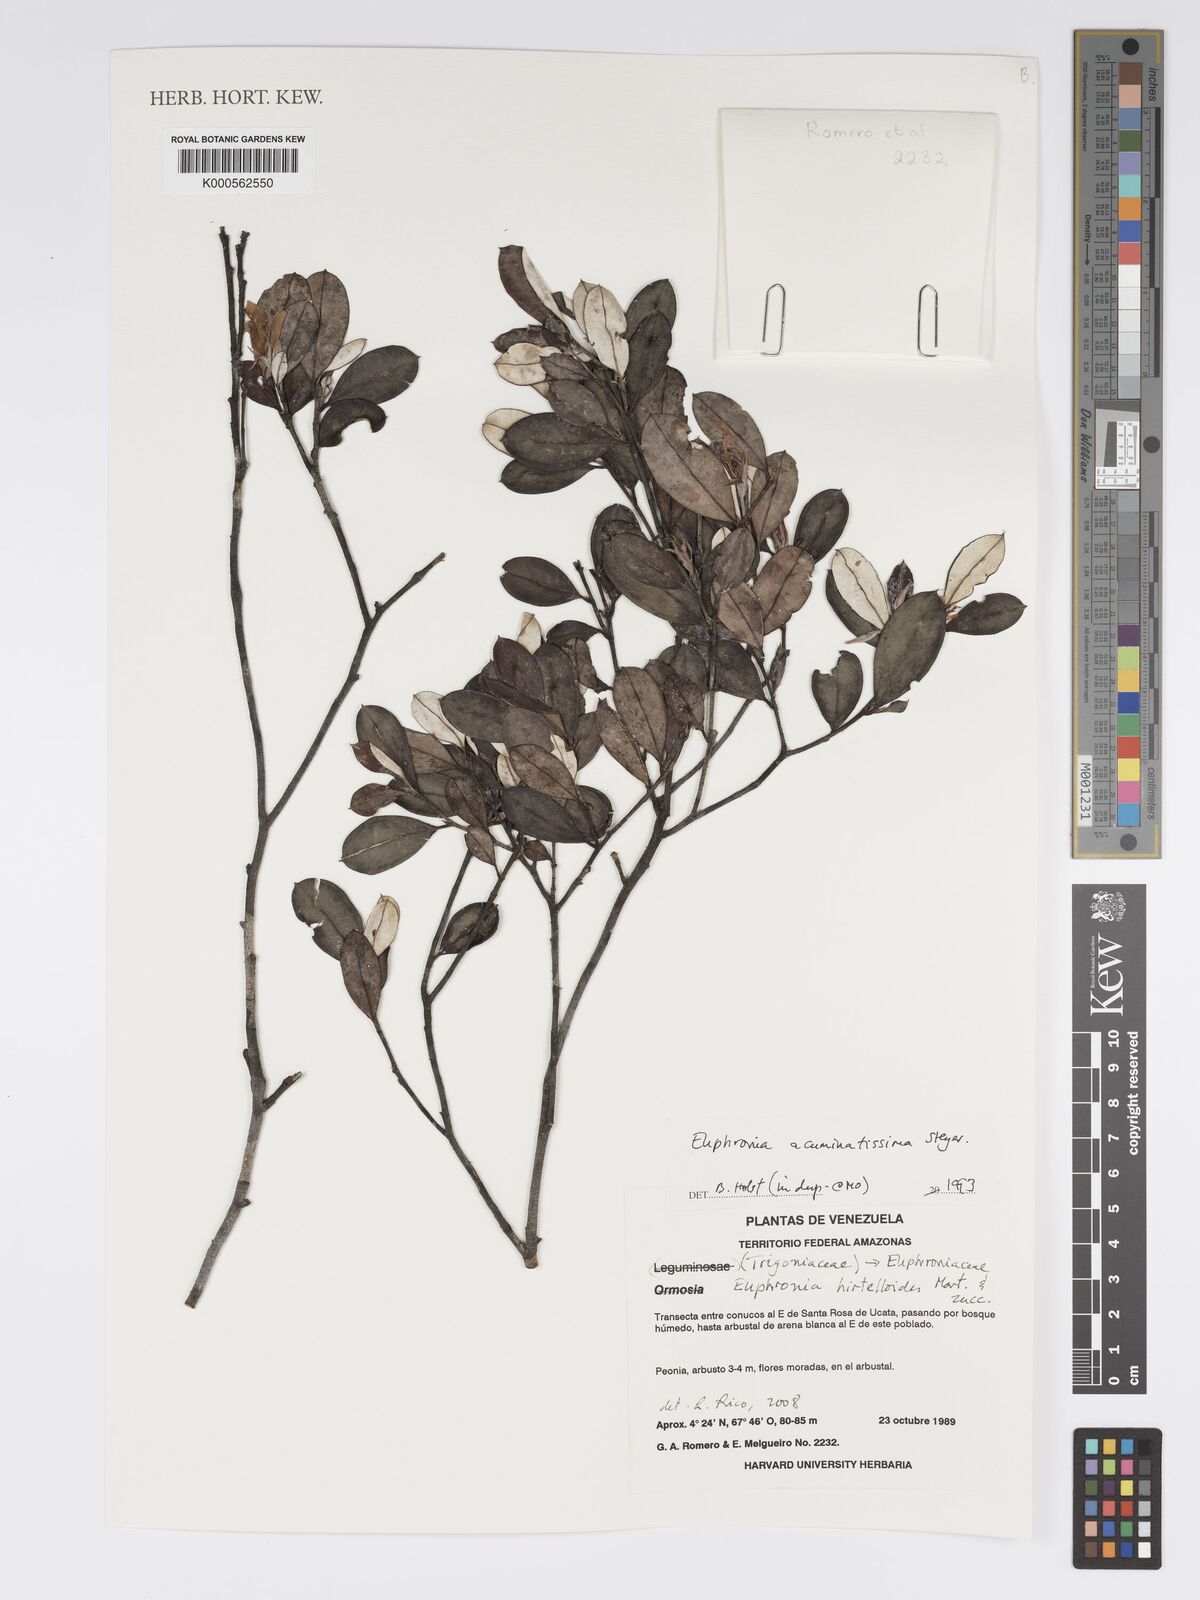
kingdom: Plantae
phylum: Tracheophyta
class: Magnoliopsida
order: Malpighiales
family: Euphroniaceae
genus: Euphronia
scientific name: Euphronia acuminatissima
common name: Acuminate euphronia
